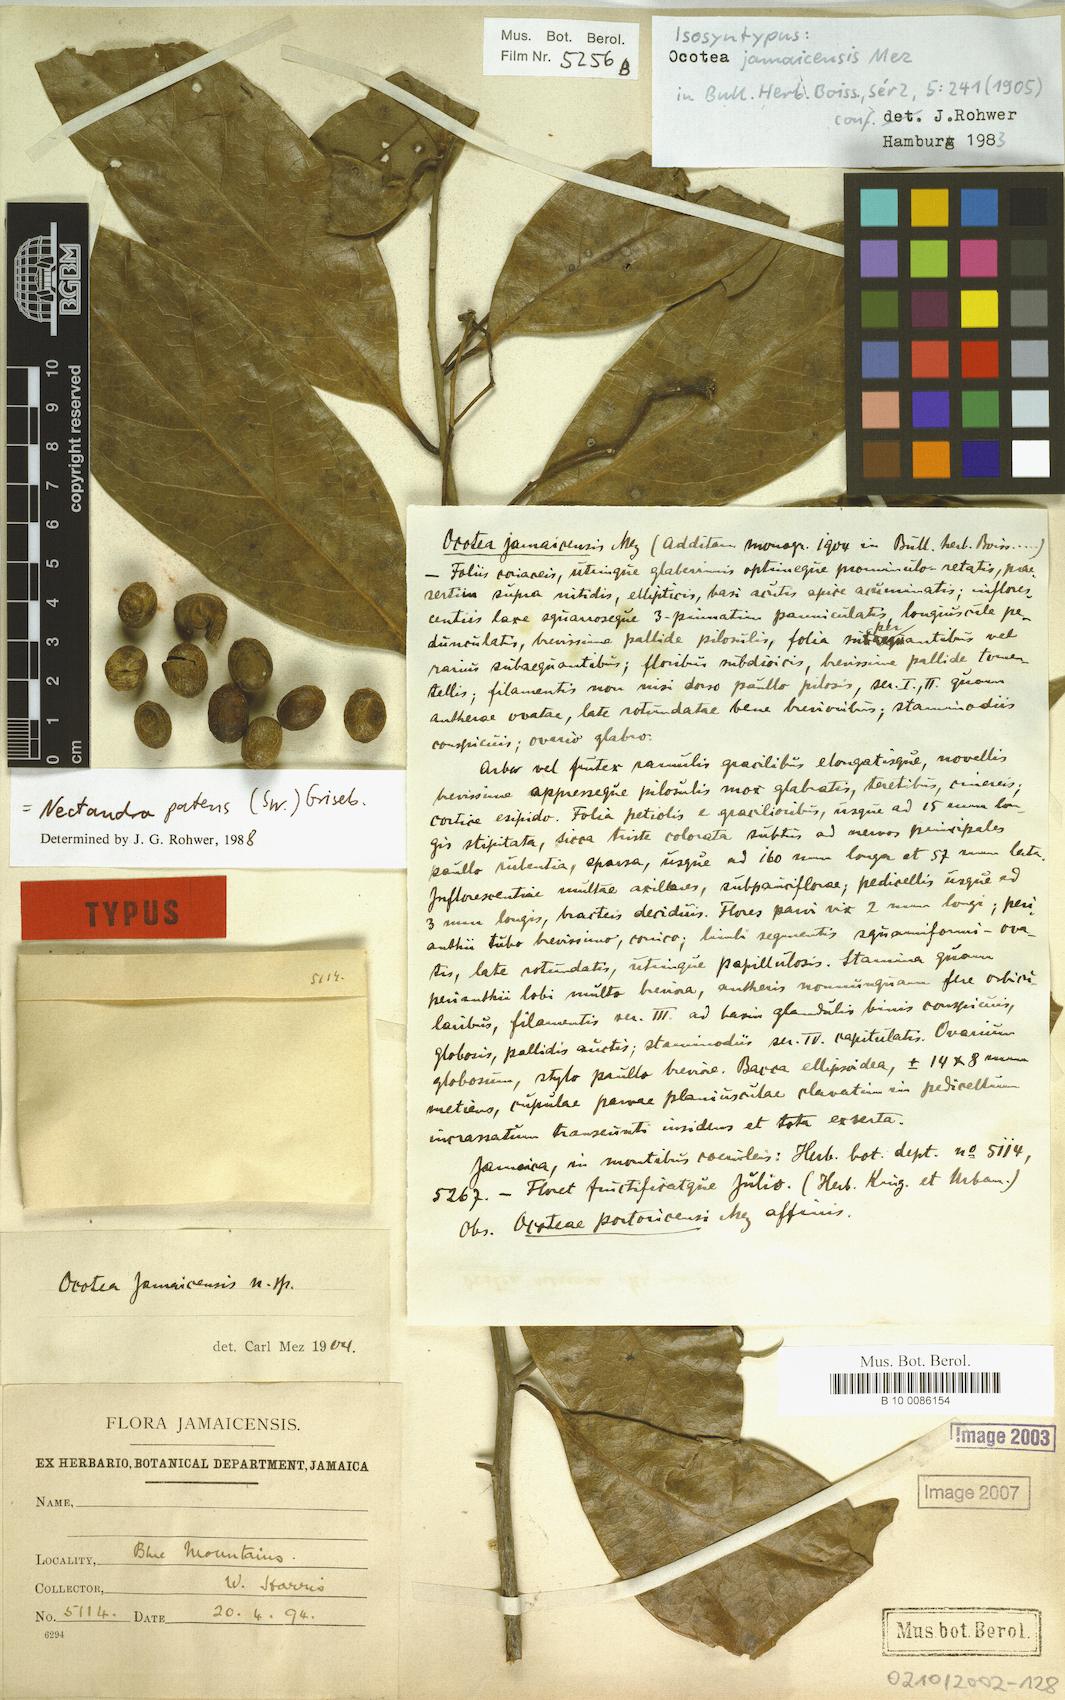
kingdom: Plantae
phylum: Tracheophyta
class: Magnoliopsida
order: Laurales
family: Lauraceae
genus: Damburneya
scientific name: Damburneya patens
